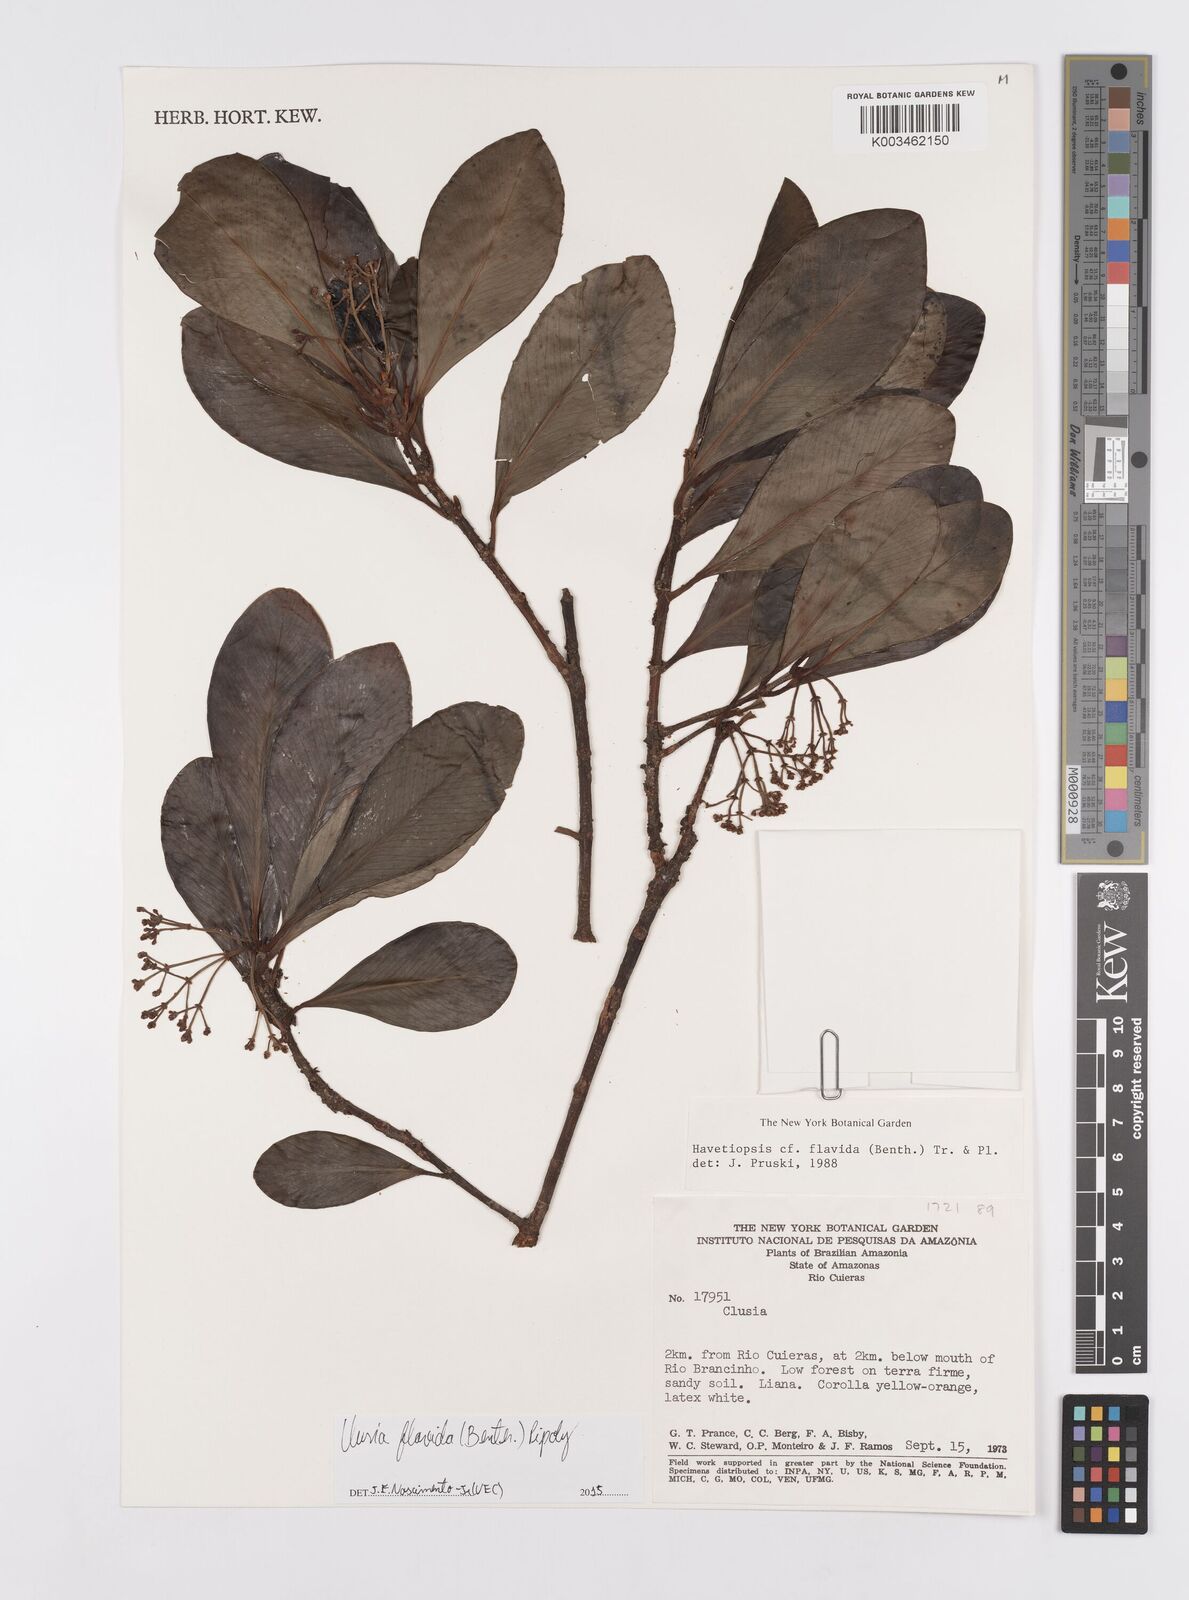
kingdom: Plantae
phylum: Tracheophyta
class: Magnoliopsida
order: Malpighiales
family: Clusiaceae
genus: Clusia
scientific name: Clusia flavida
